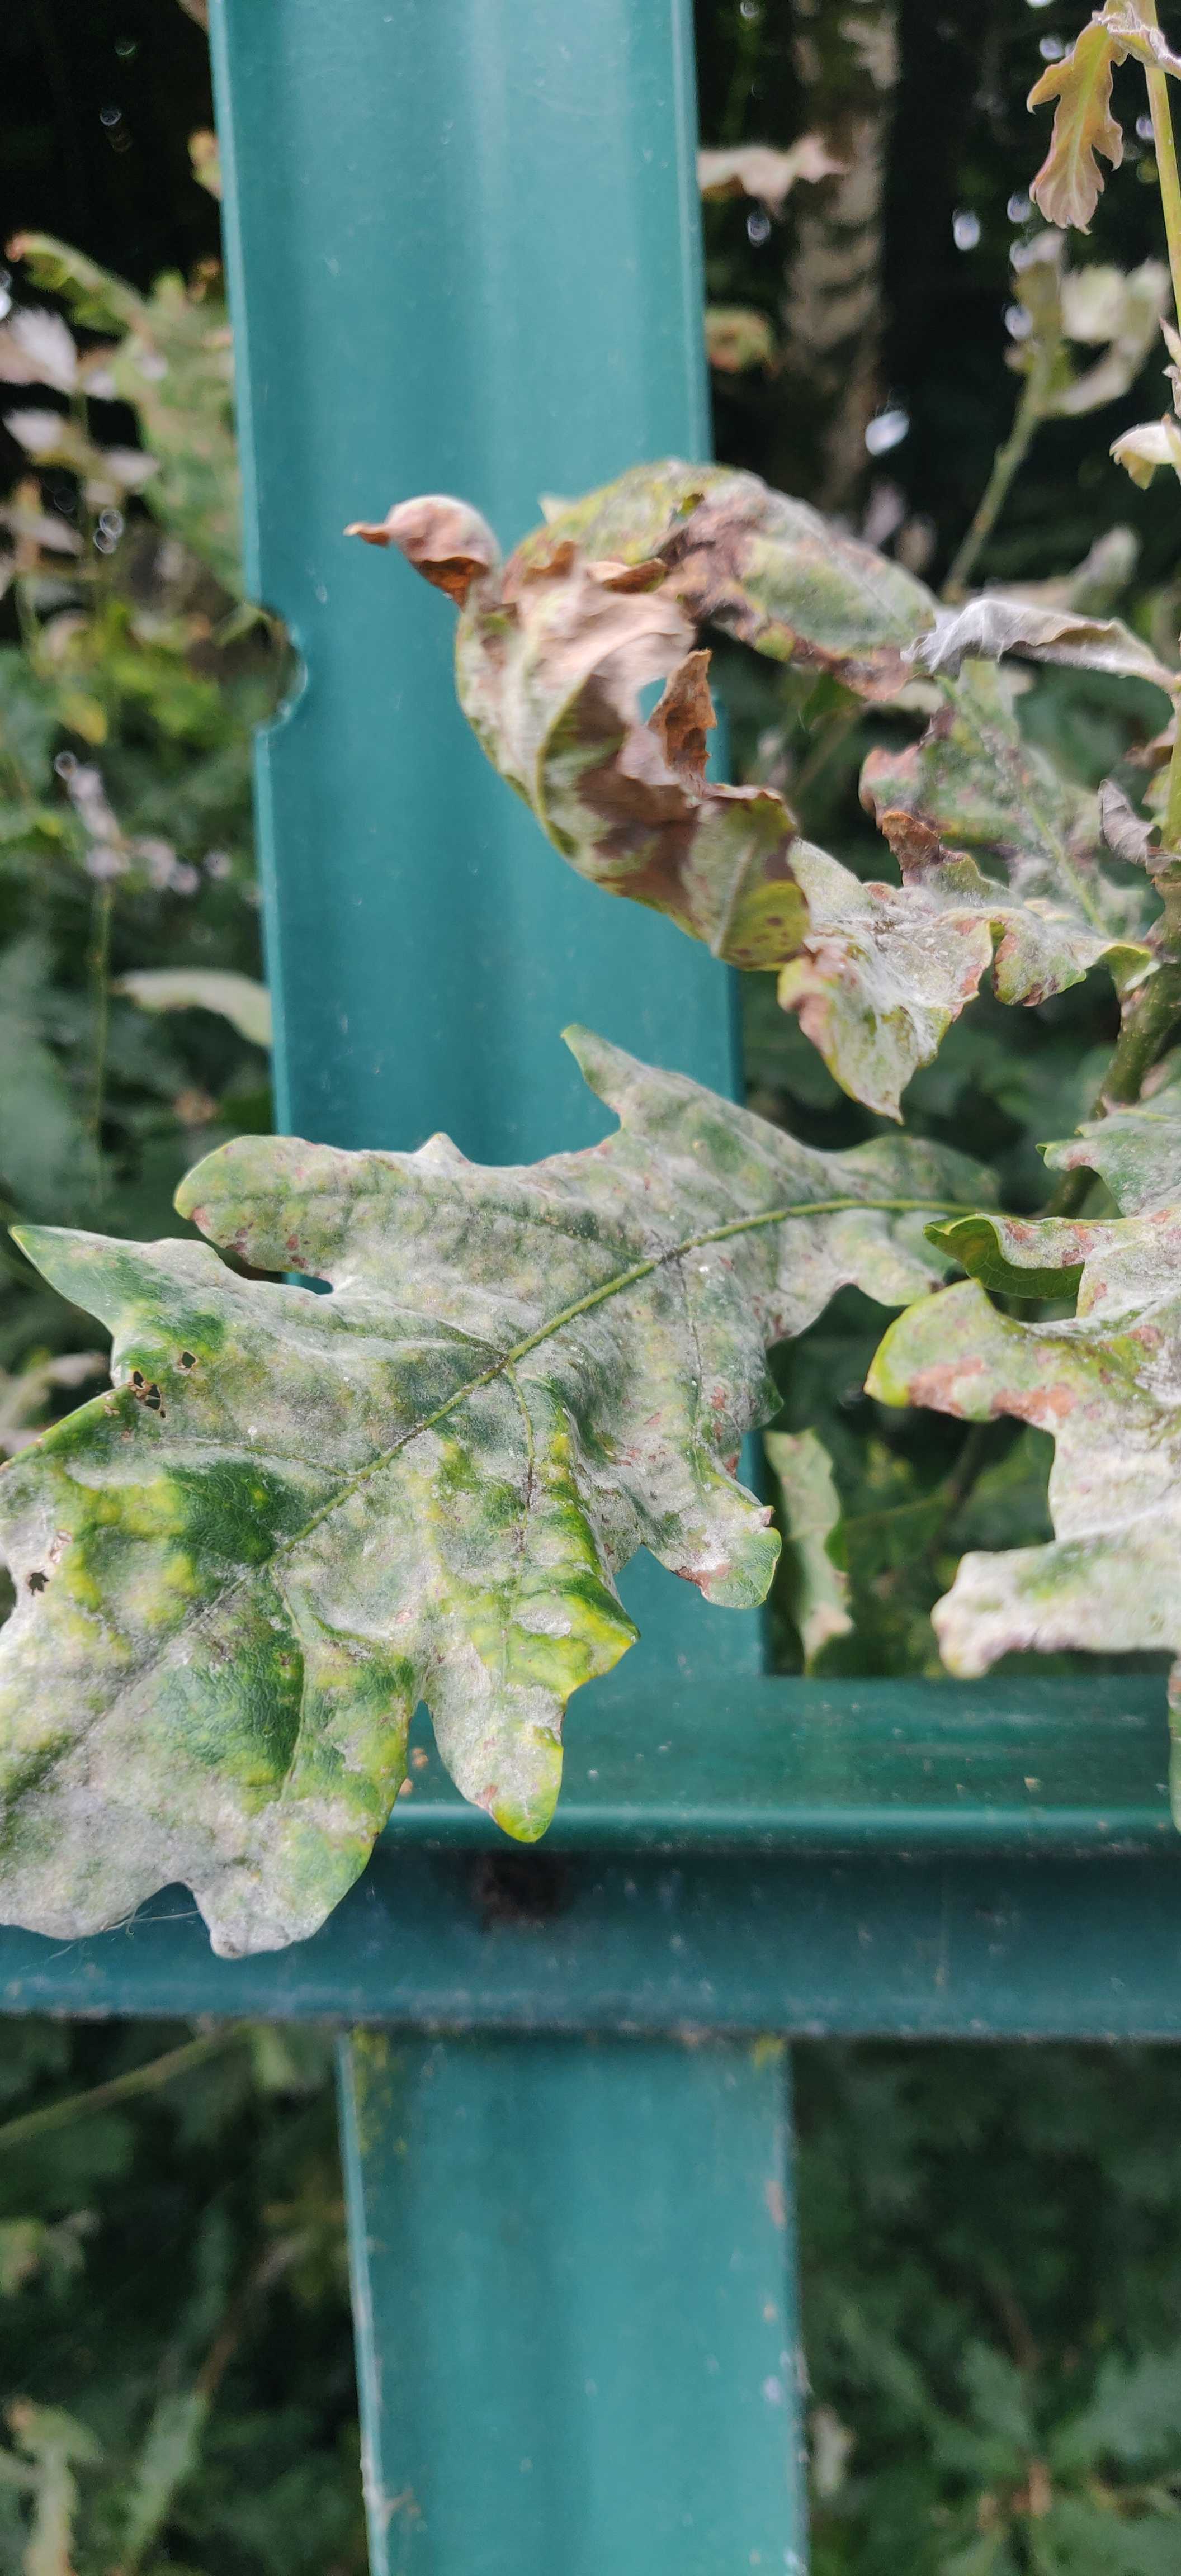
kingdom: Fungi
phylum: Ascomycota
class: Leotiomycetes
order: Helotiales
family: Erysiphaceae
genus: Erysiphe
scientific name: Erysiphe alphitoides
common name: ege-meldug
